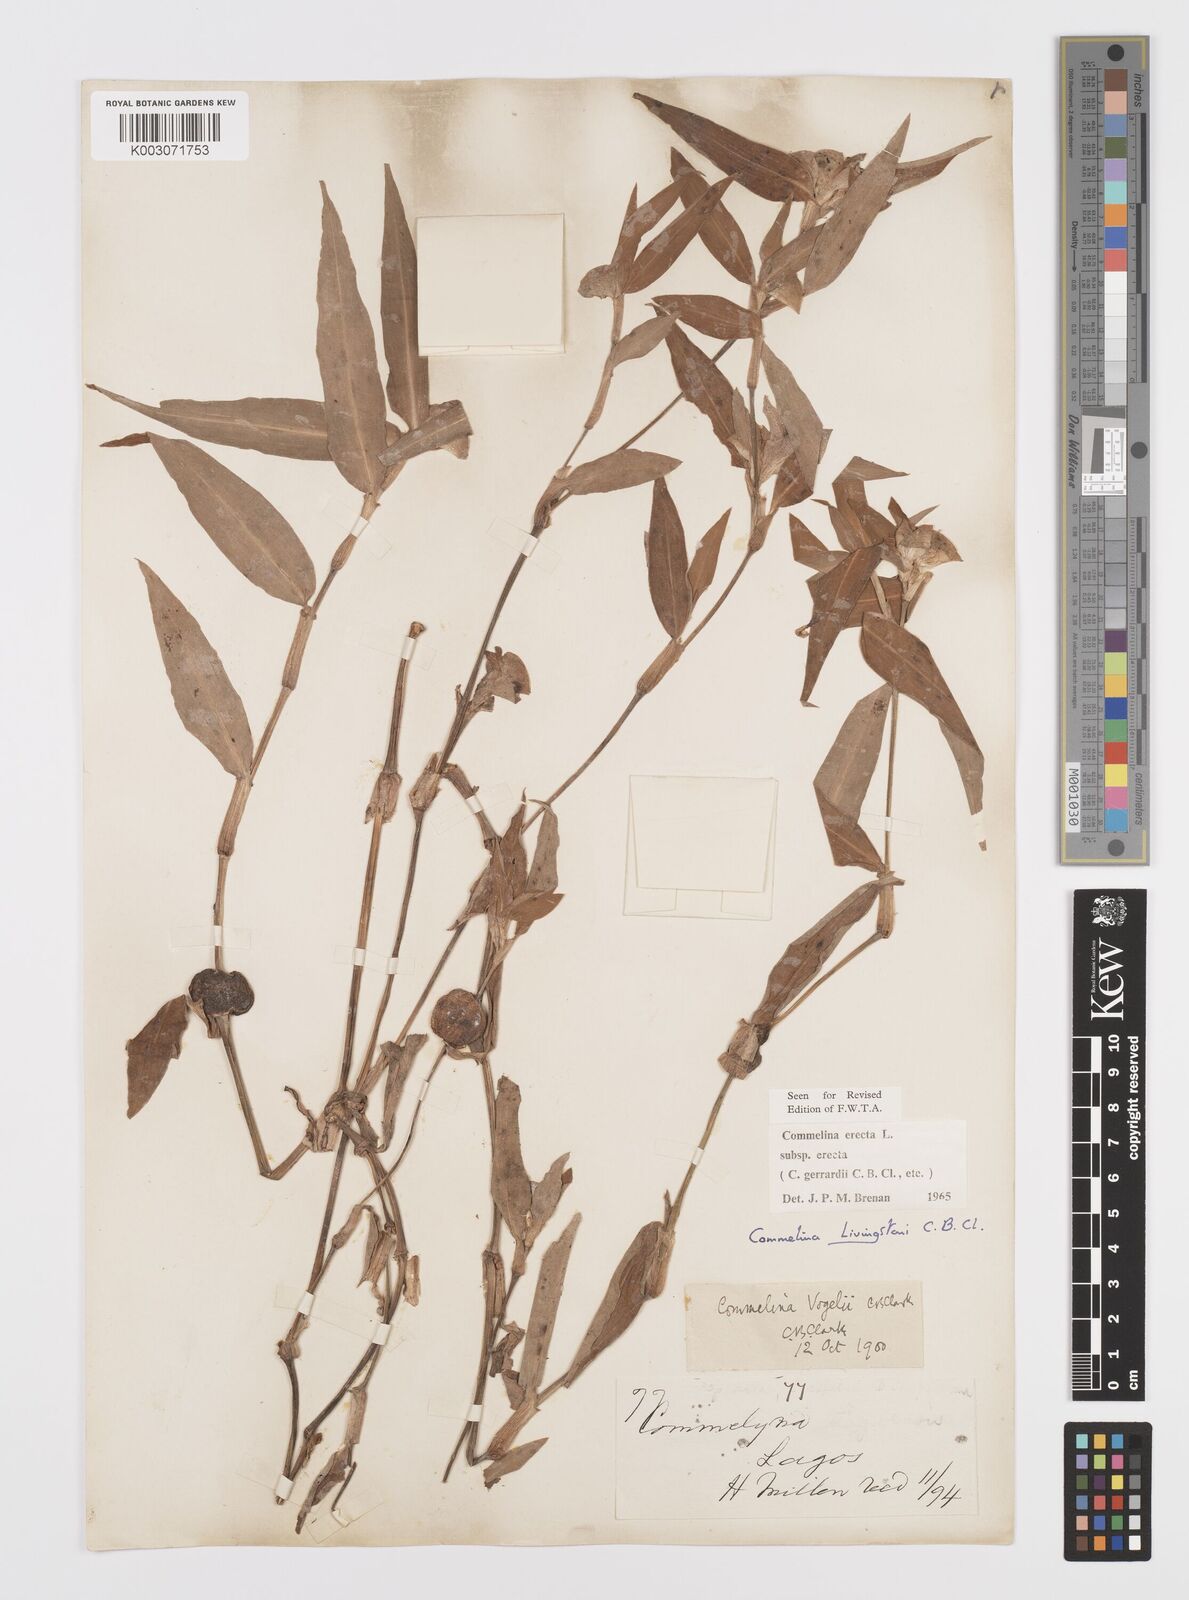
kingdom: Plantae
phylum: Tracheophyta
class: Liliopsida
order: Commelinales
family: Commelinaceae
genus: Commelina
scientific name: Commelina erecta
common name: Blousel blommetjie
